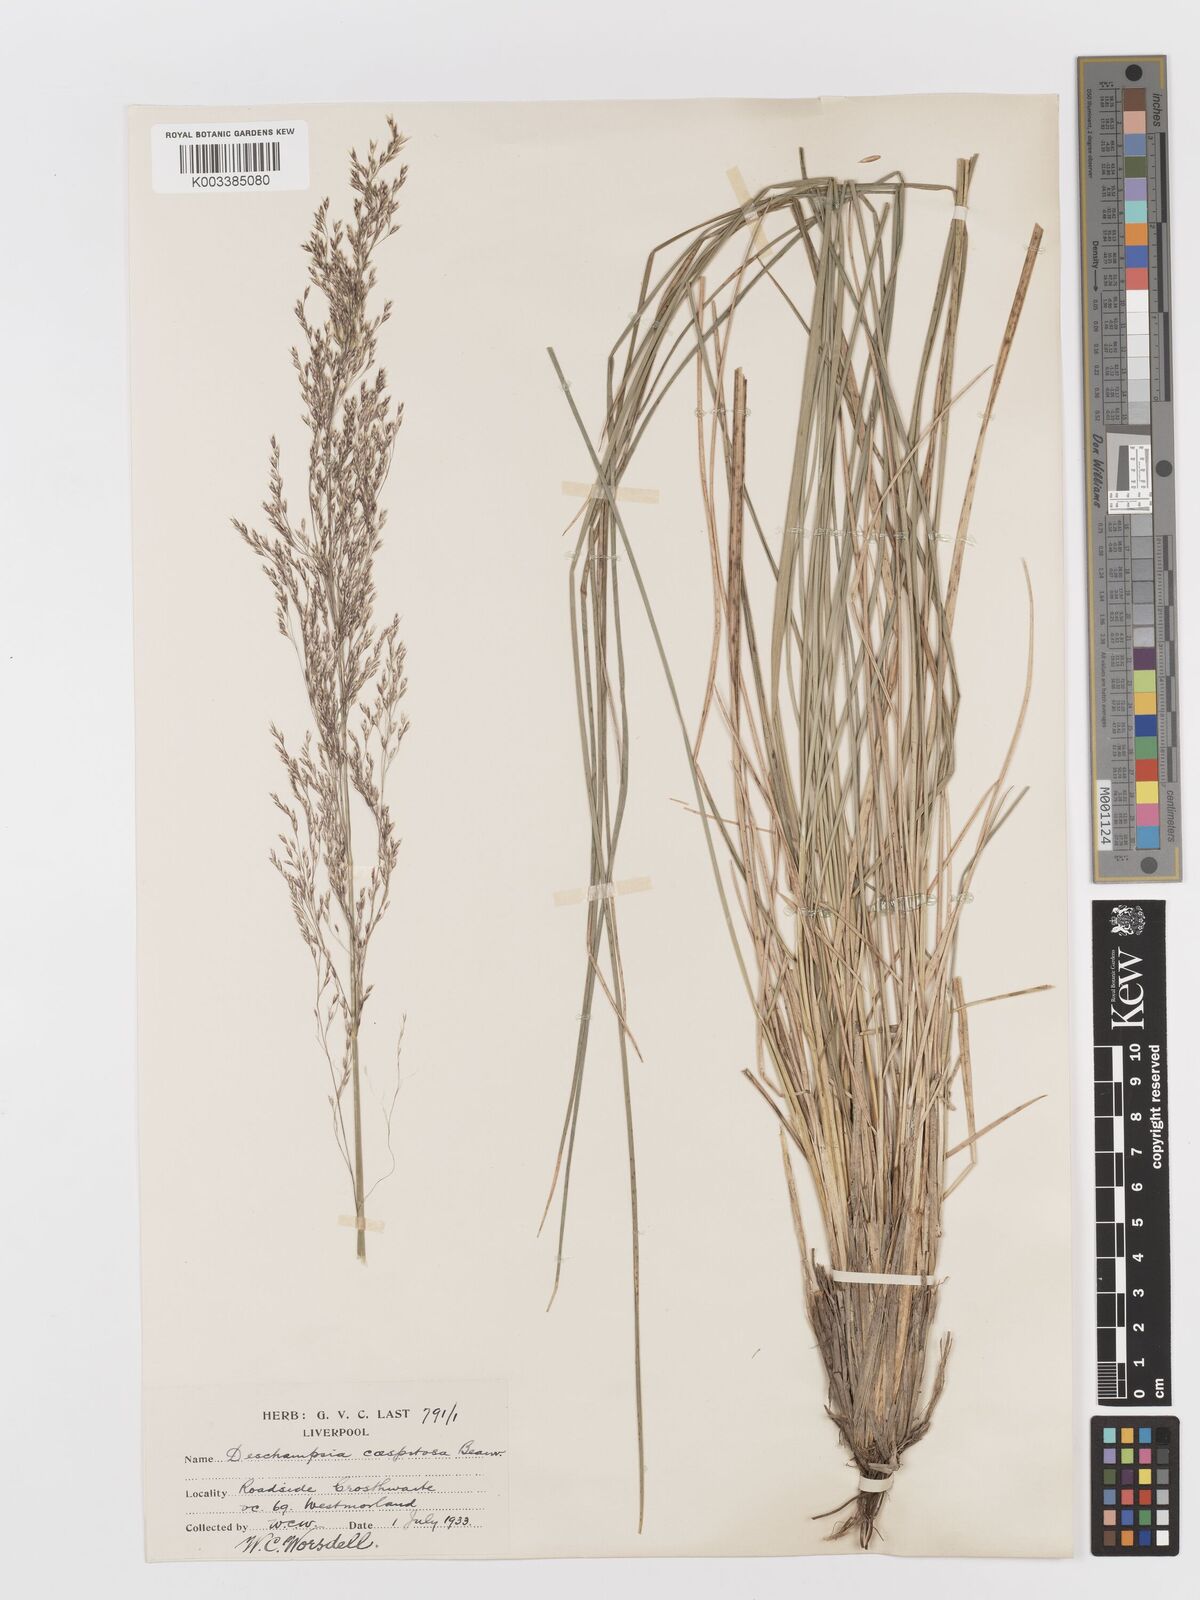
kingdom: Plantae
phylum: Tracheophyta
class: Liliopsida
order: Poales
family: Poaceae
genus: Deschampsia
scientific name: Deschampsia cespitosa
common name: Tufted hair-grass
